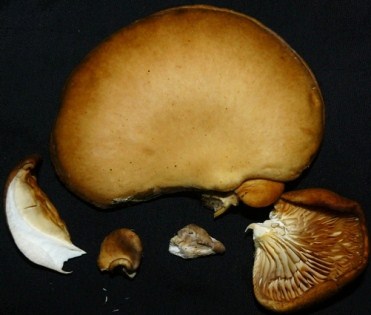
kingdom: Fungi
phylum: Basidiomycota
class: Agaricomycetes
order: Agaricales
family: Pleurotaceae
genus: Pleurotus
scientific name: Pleurotus ostreatus
